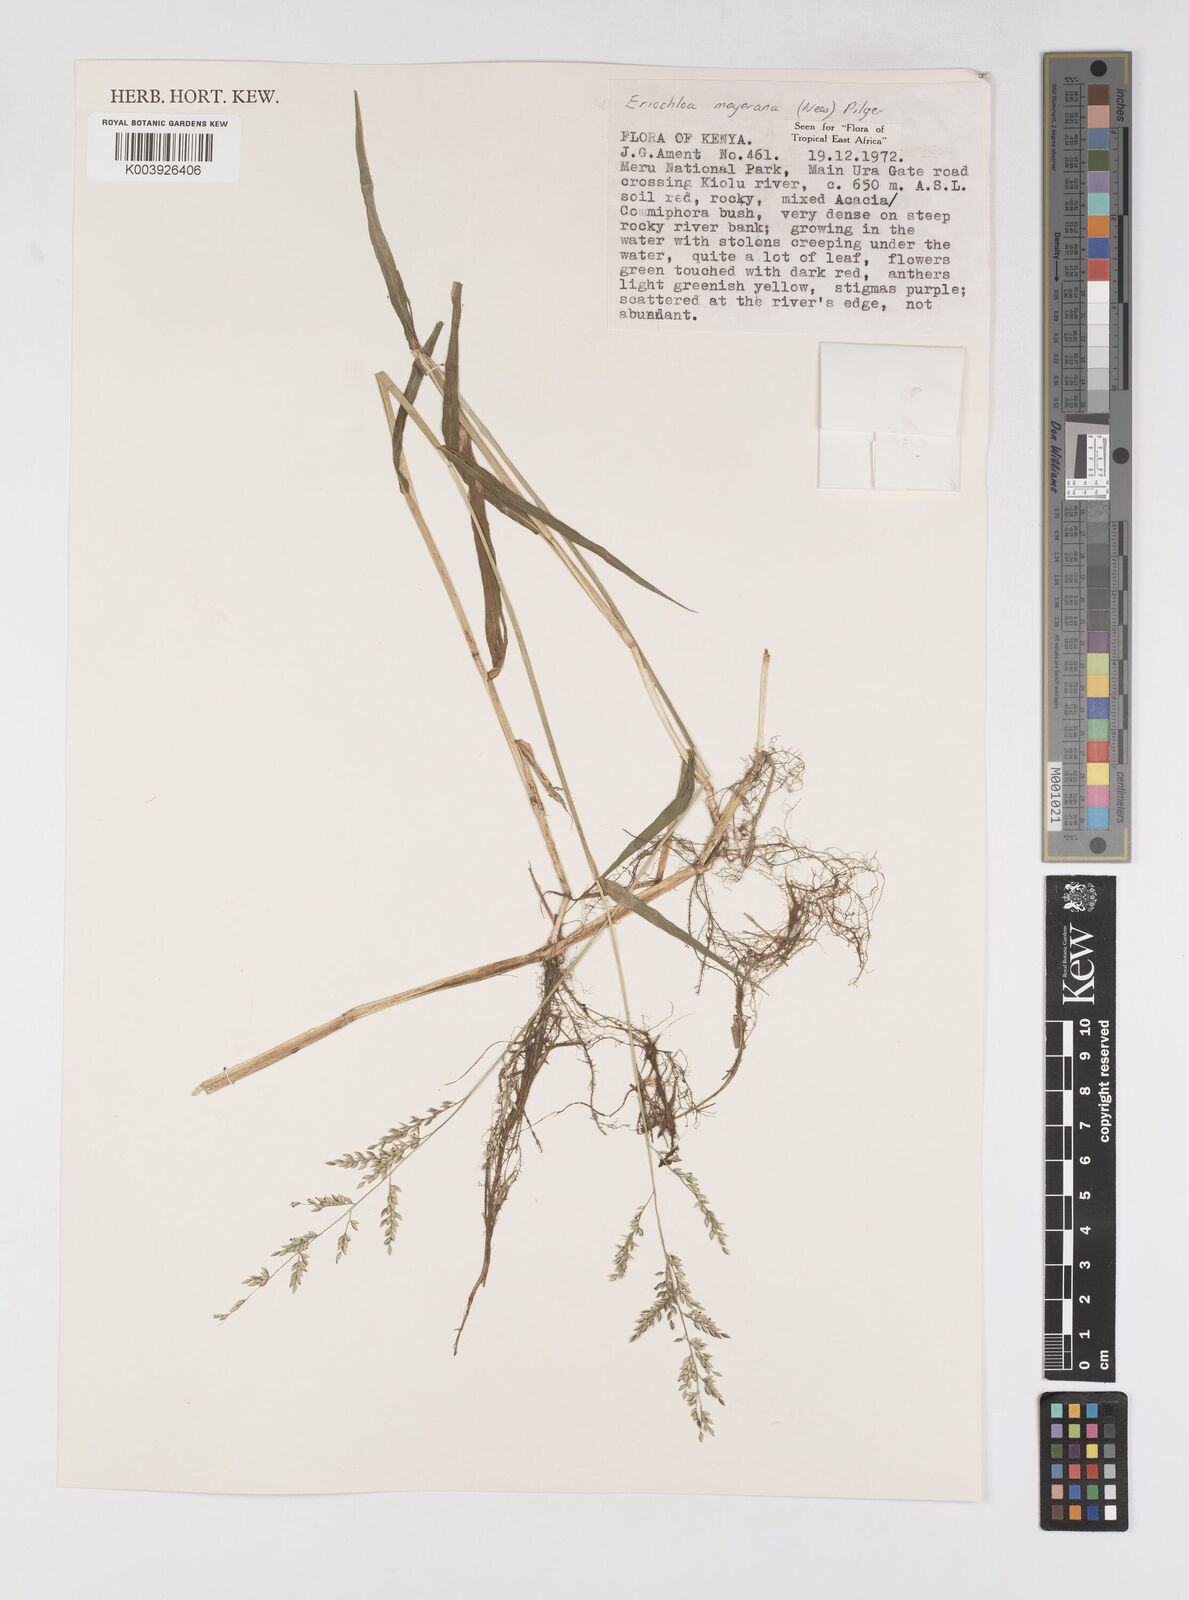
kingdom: Plantae
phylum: Tracheophyta
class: Liliopsida
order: Poales
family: Poaceae
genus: Eriochloa
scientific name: Eriochloa meyeriana
